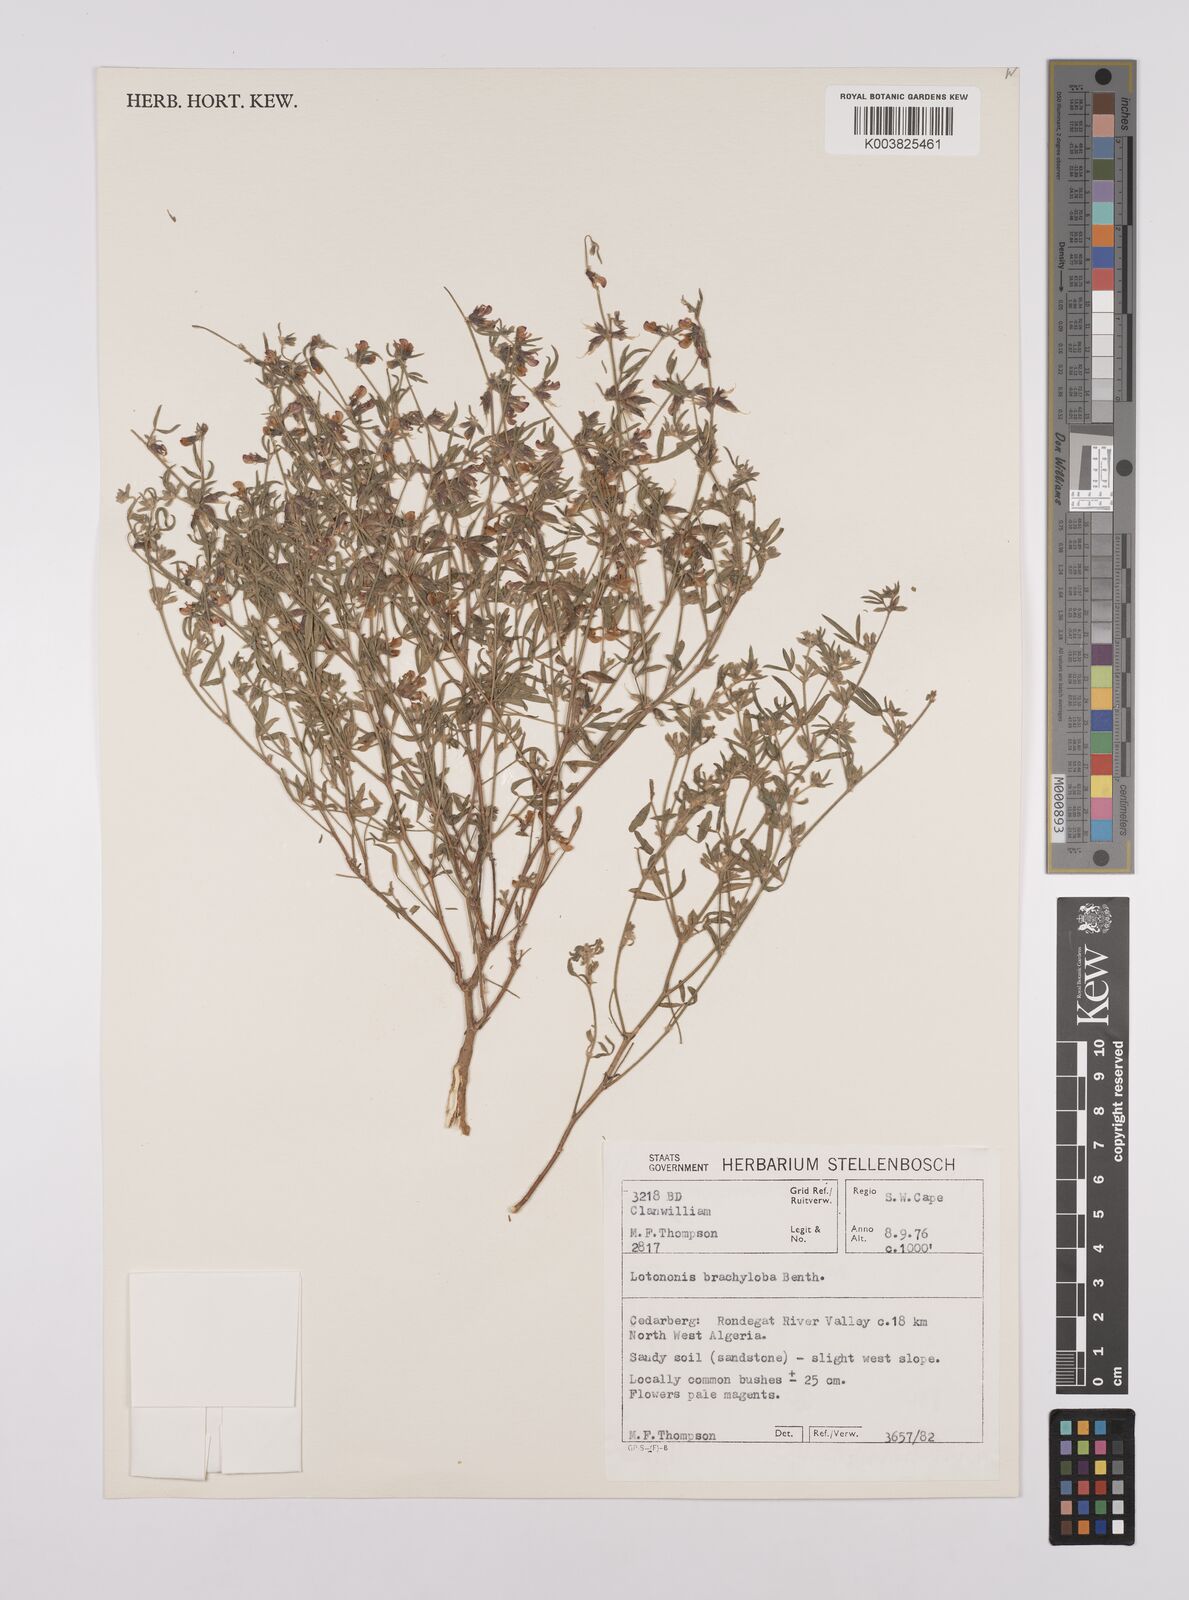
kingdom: Plantae
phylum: Tracheophyta
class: Magnoliopsida
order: Fabales
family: Fabaceae
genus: Lotononis
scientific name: Lotononis parviflora
